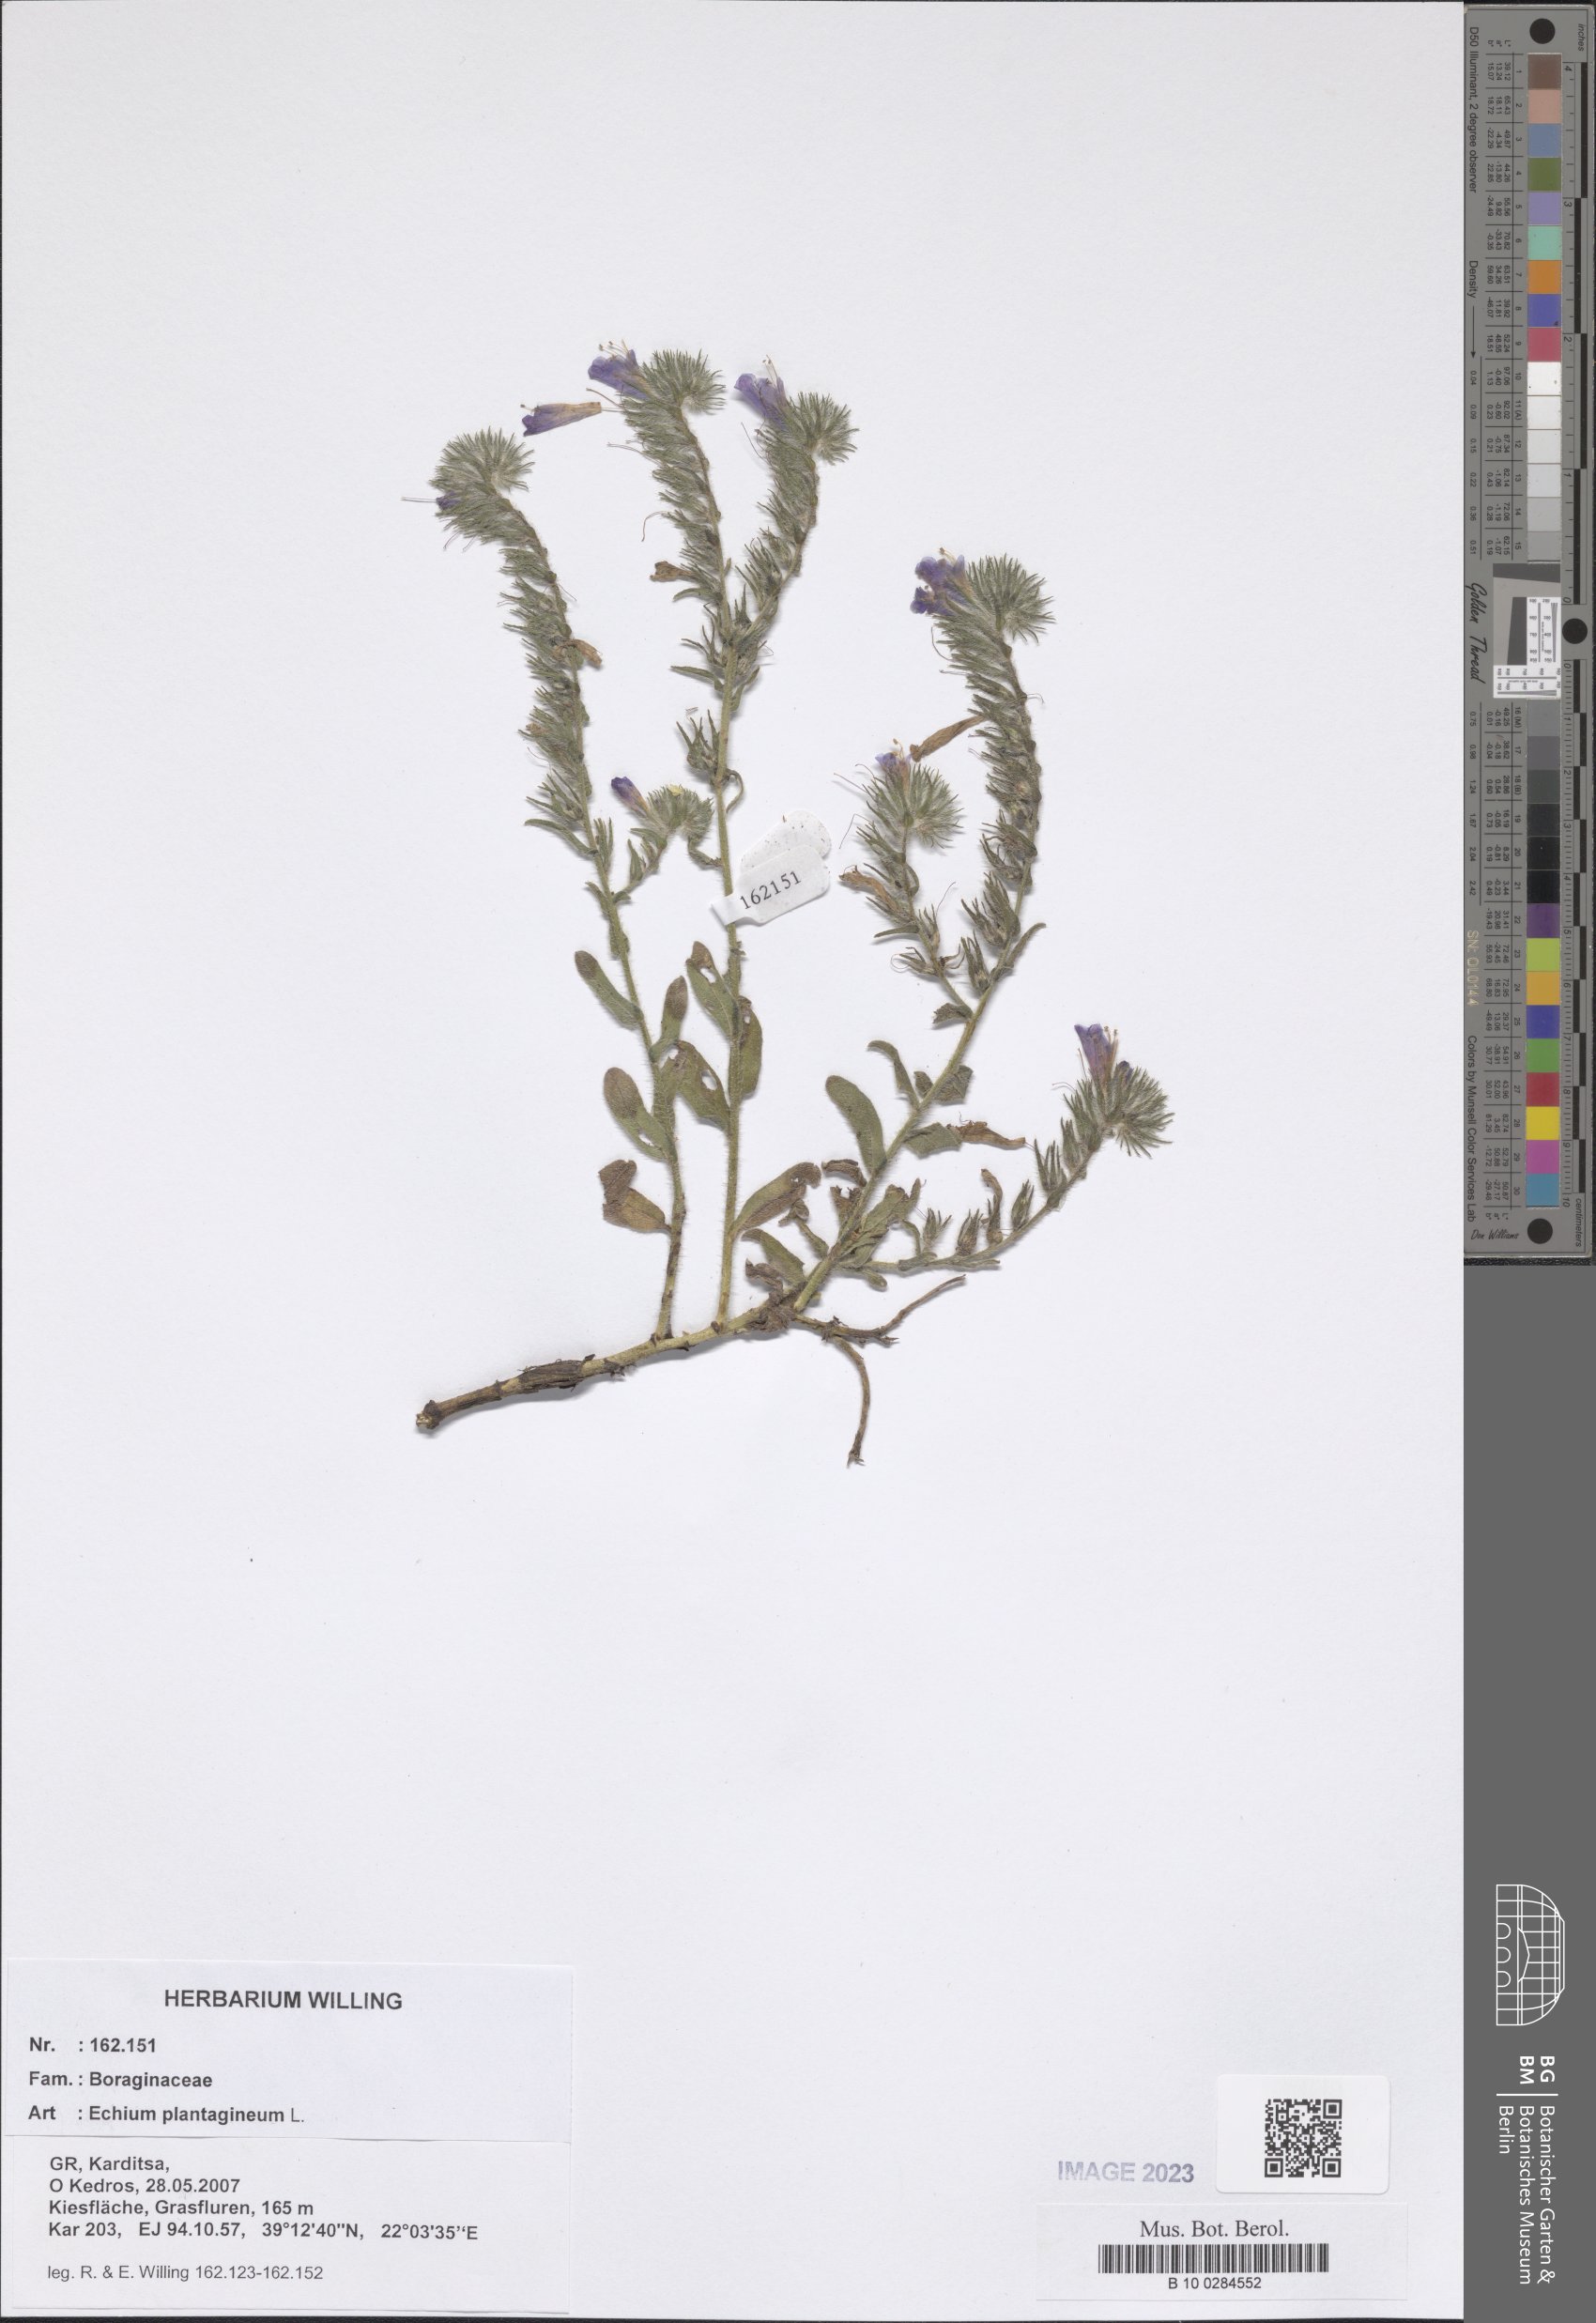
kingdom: Plantae
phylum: Tracheophyta
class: Magnoliopsida
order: Boraginales
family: Boraginaceae
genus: Echium
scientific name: Echium plantagineum
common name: Purple viper's-bugloss
